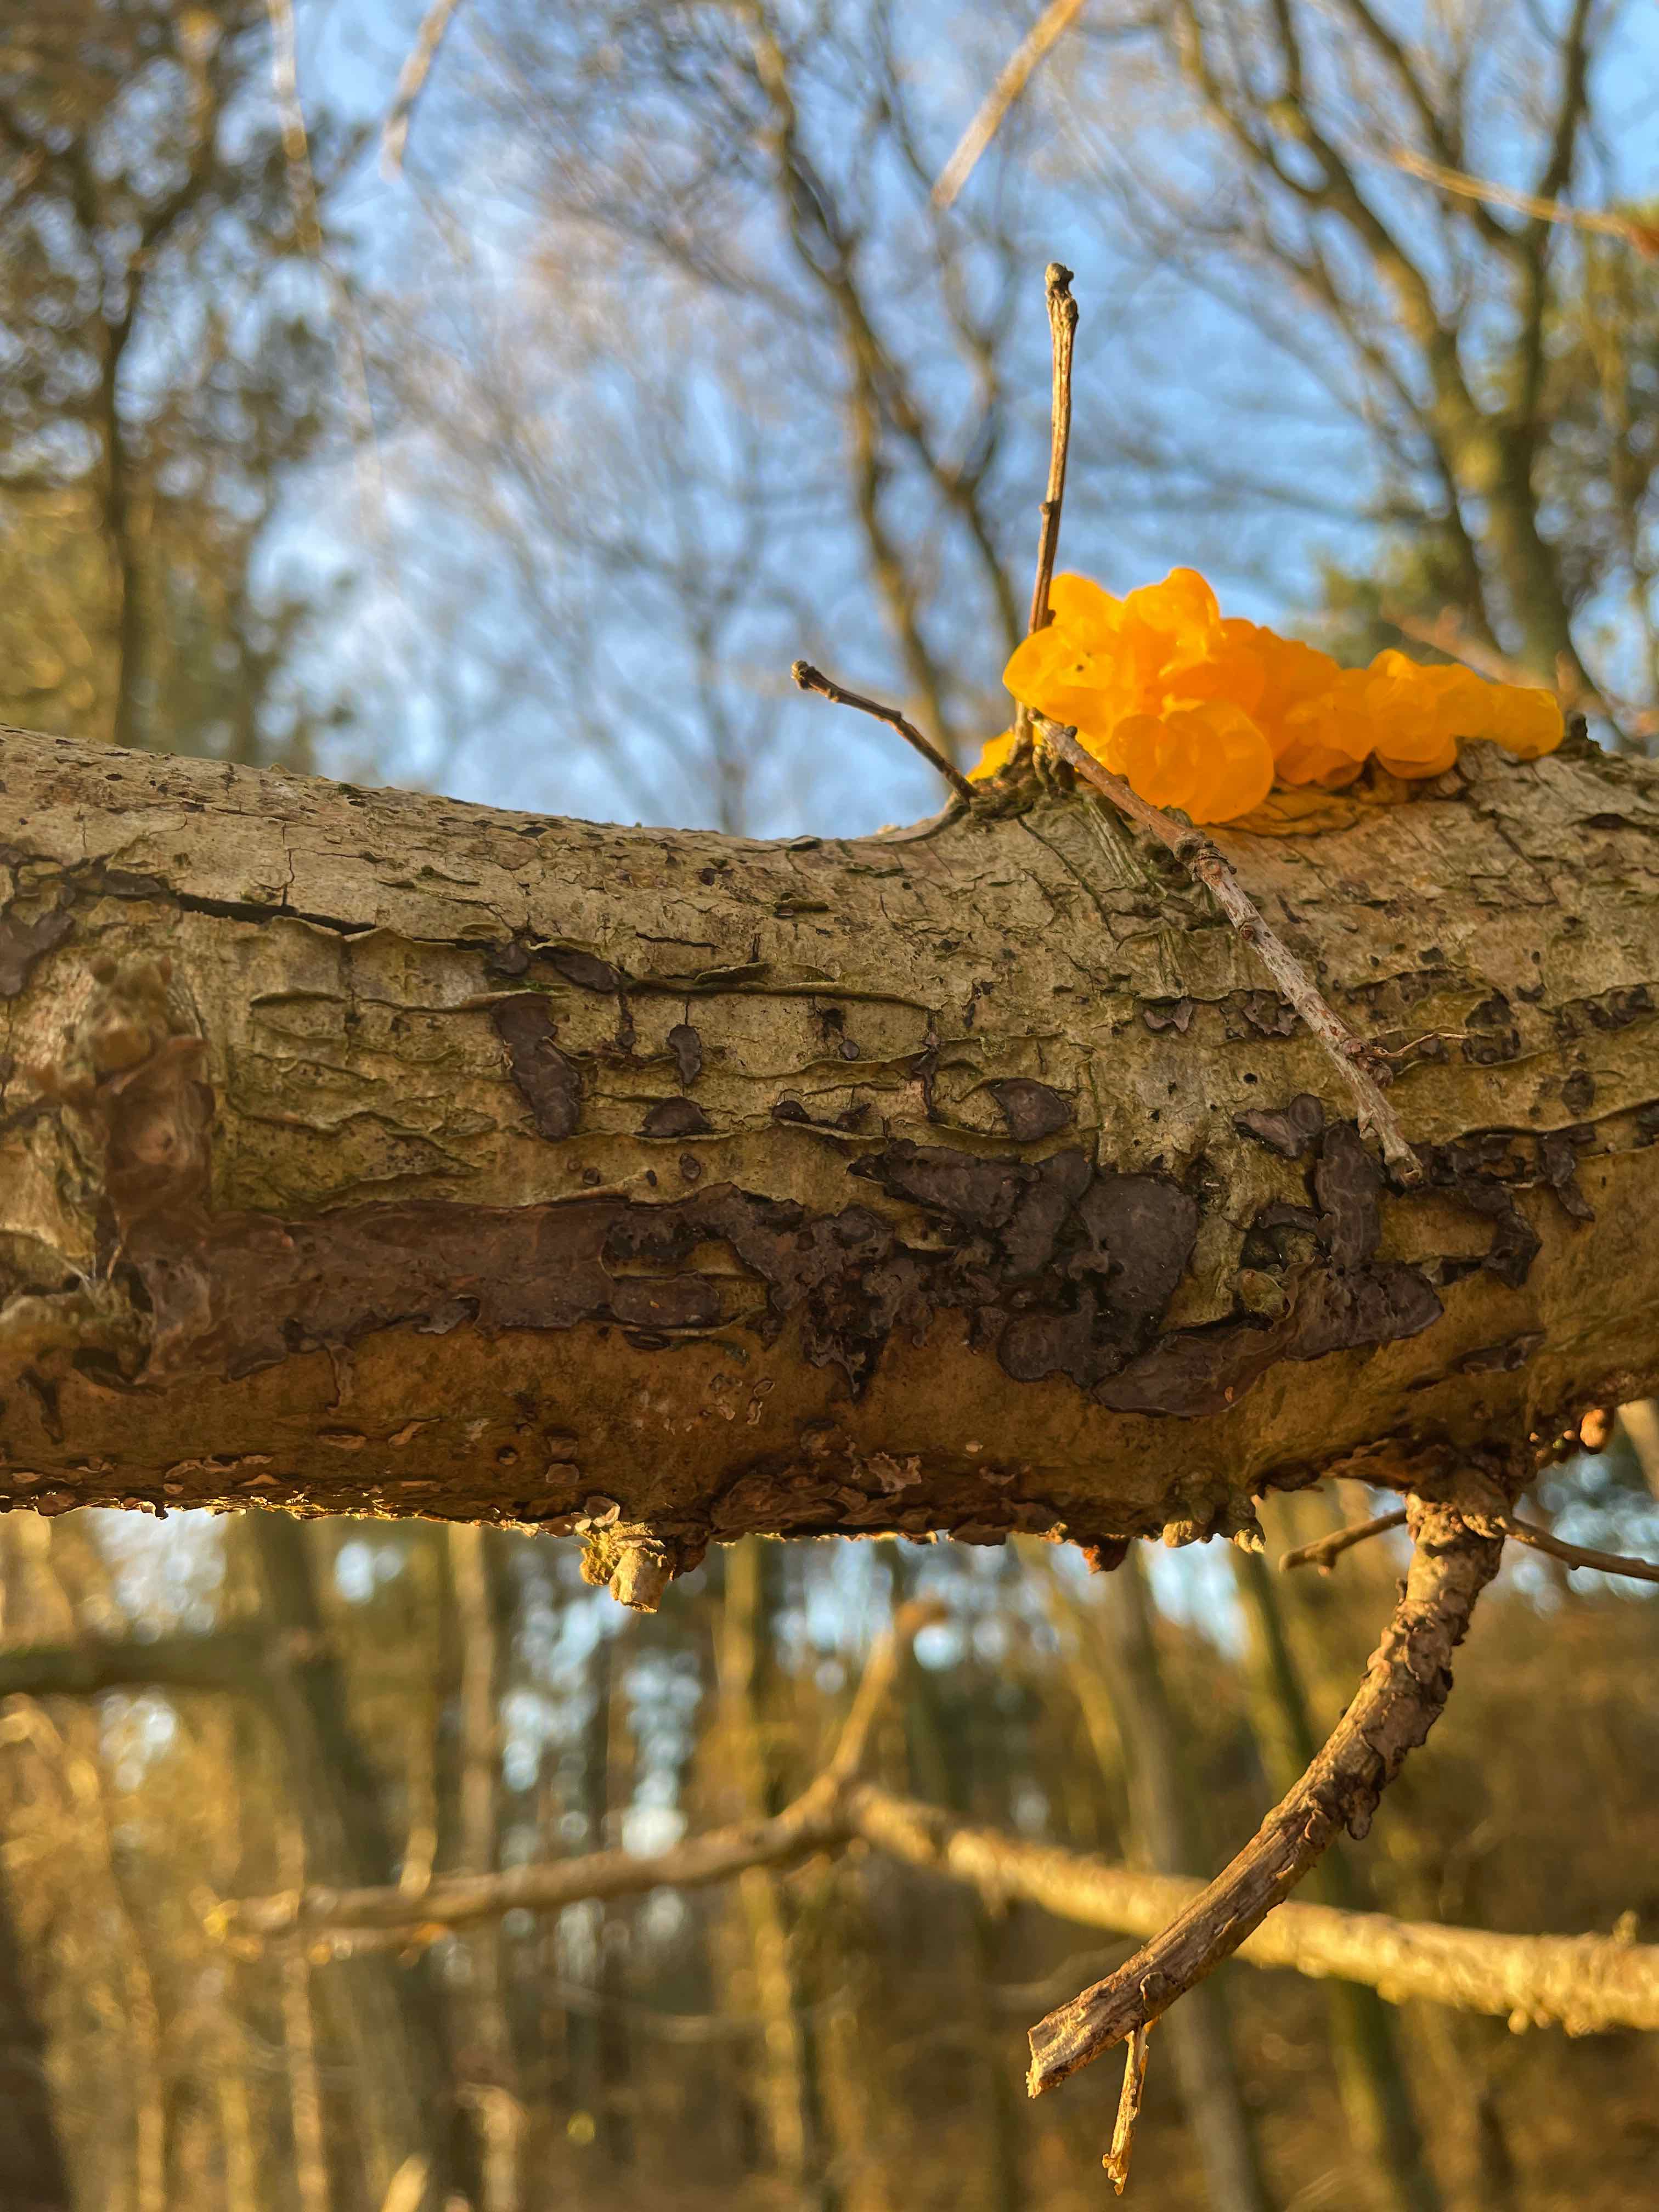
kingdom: Fungi
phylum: Basidiomycota
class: Agaricomycetes
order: Russulales
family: Peniophoraceae
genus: Peniophora
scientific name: Peniophora quercina
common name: ege-voksskind
